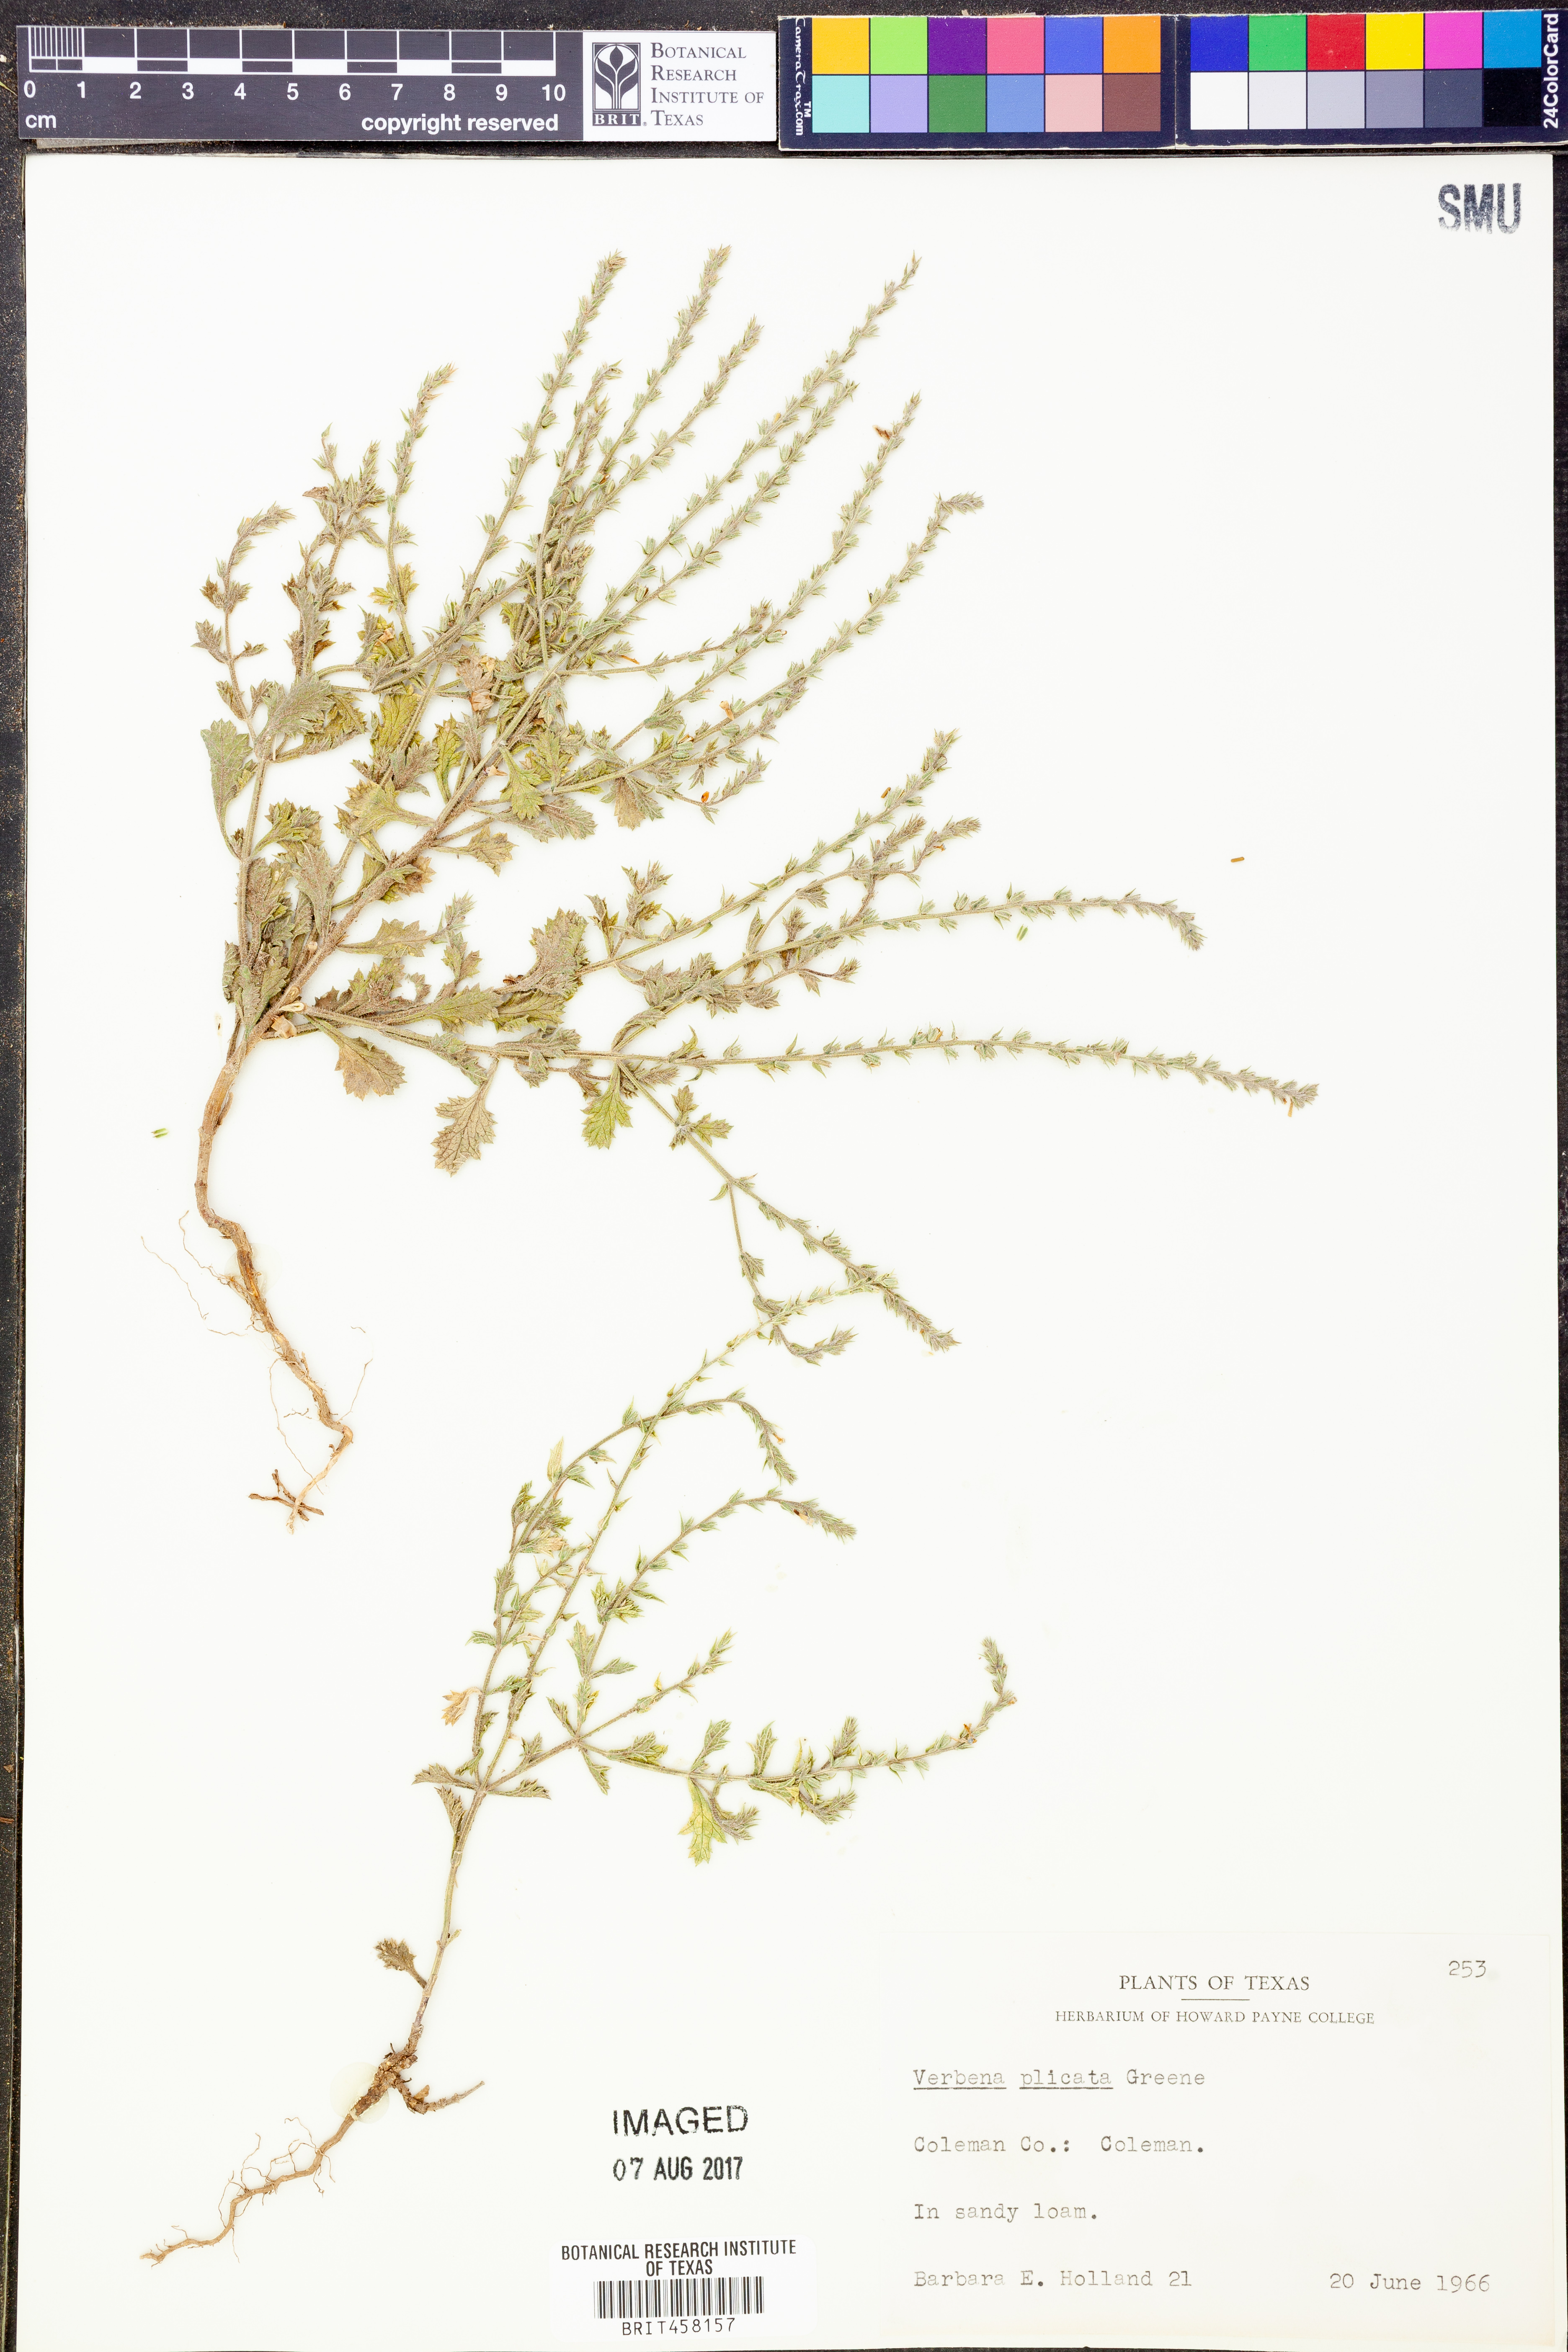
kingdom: Plantae
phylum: Tracheophyta
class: Magnoliopsida
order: Lamiales
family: Verbenaceae
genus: Verbena
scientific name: Verbena plicata
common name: Fan-leaf vervain
